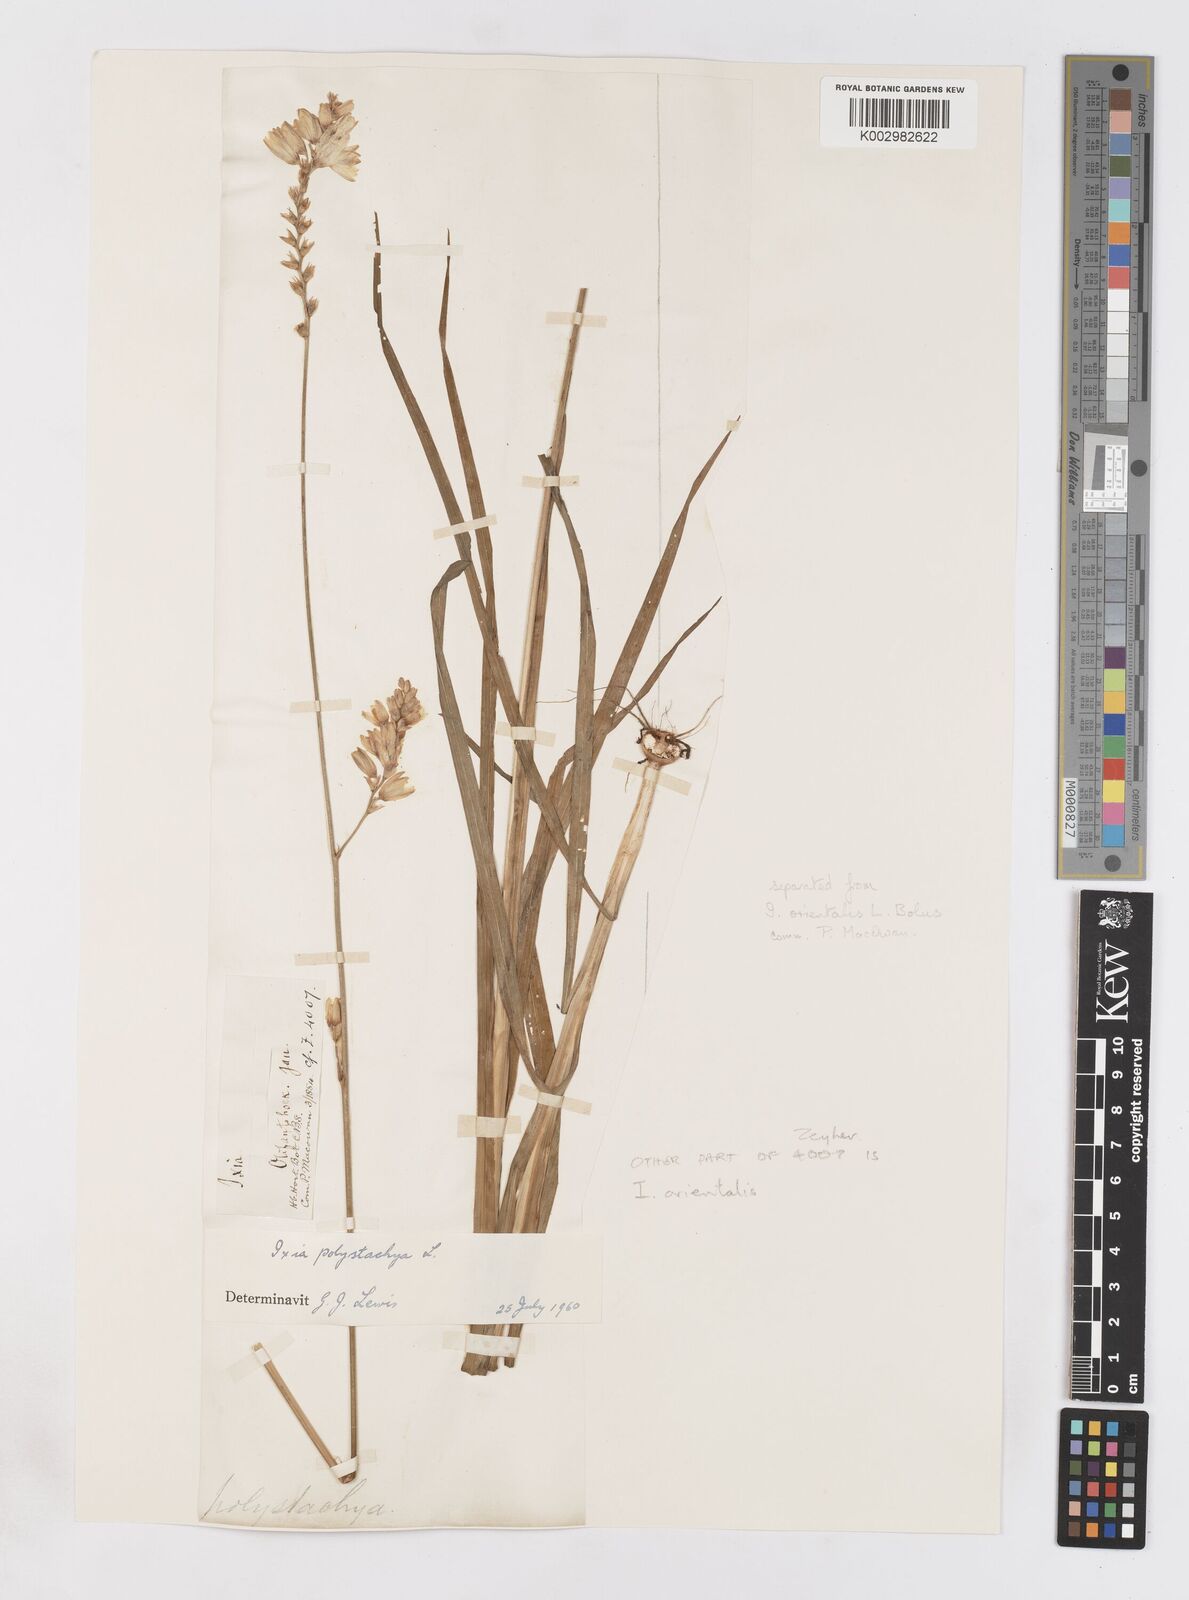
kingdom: Plantae
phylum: Tracheophyta
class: Liliopsida
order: Asparagales
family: Iridaceae
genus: Ixia
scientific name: Ixia polystachya
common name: White-and-yellow-flower cornlily
